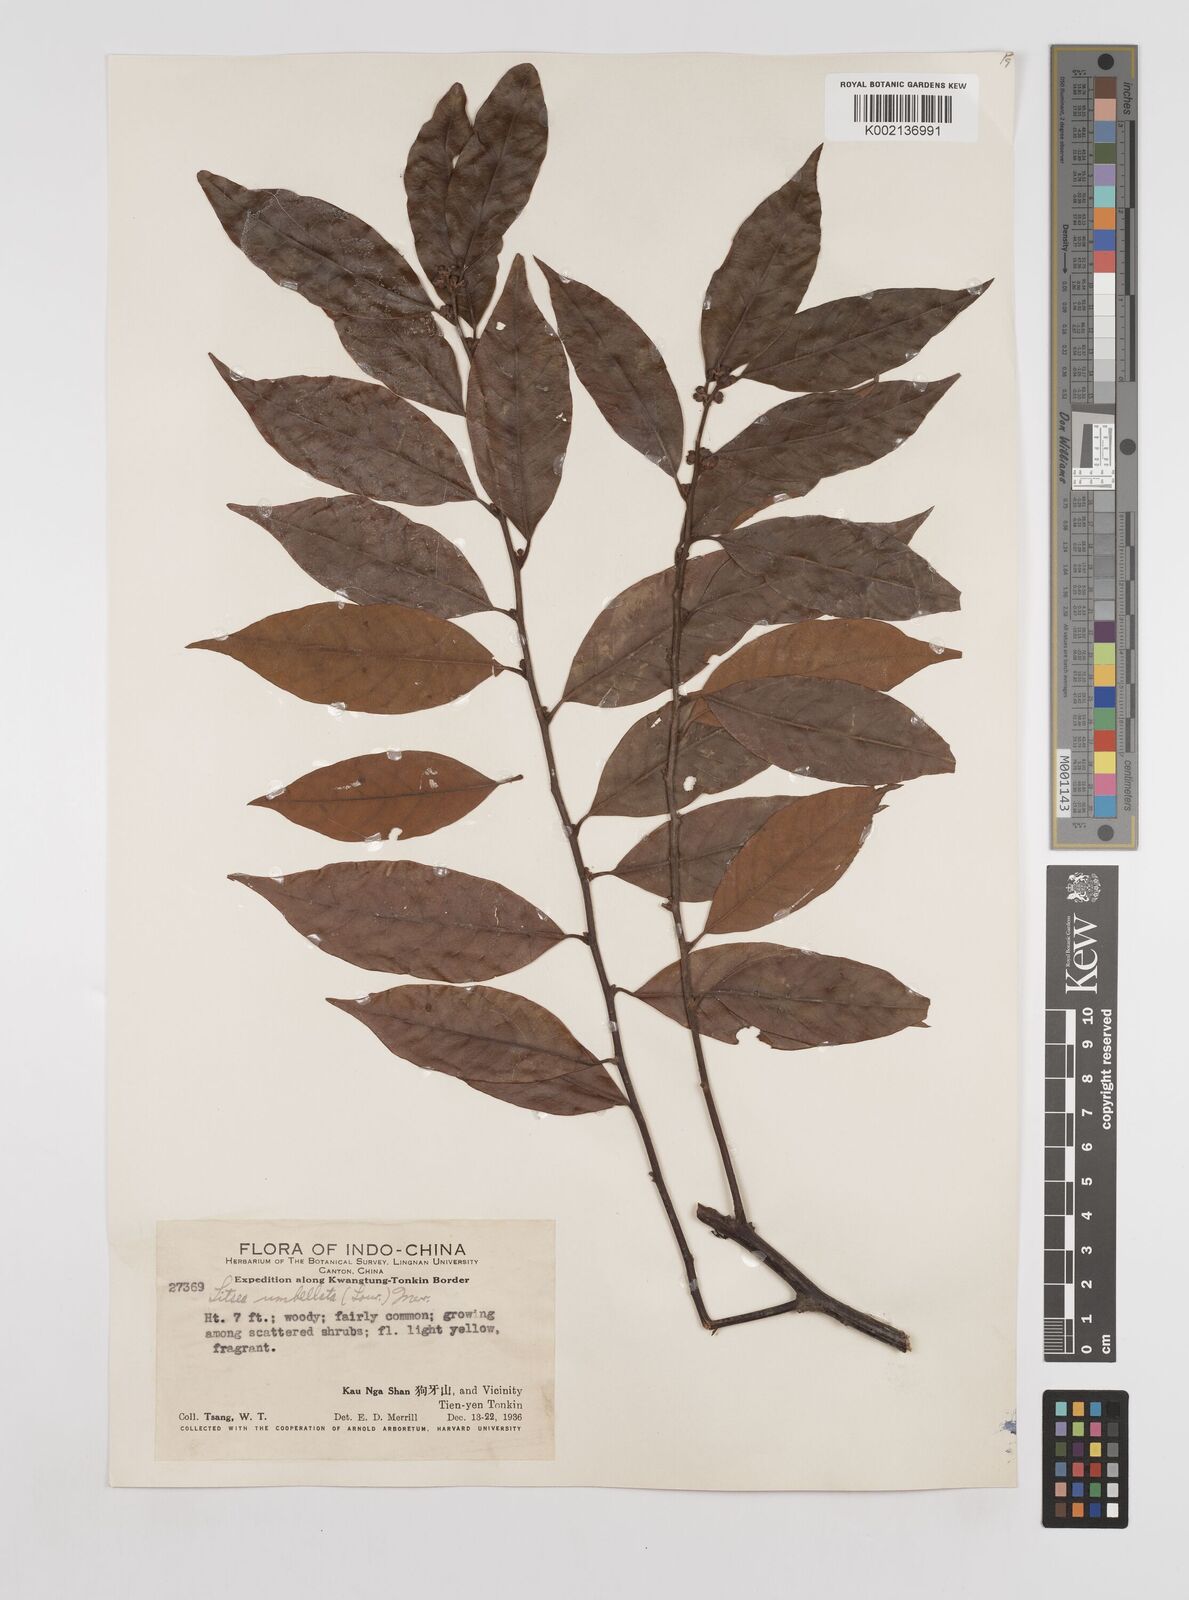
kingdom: Plantae
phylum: Tracheophyta
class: Magnoliopsida
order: Laurales
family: Lauraceae
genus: Litsea
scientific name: Litsea umbellata
